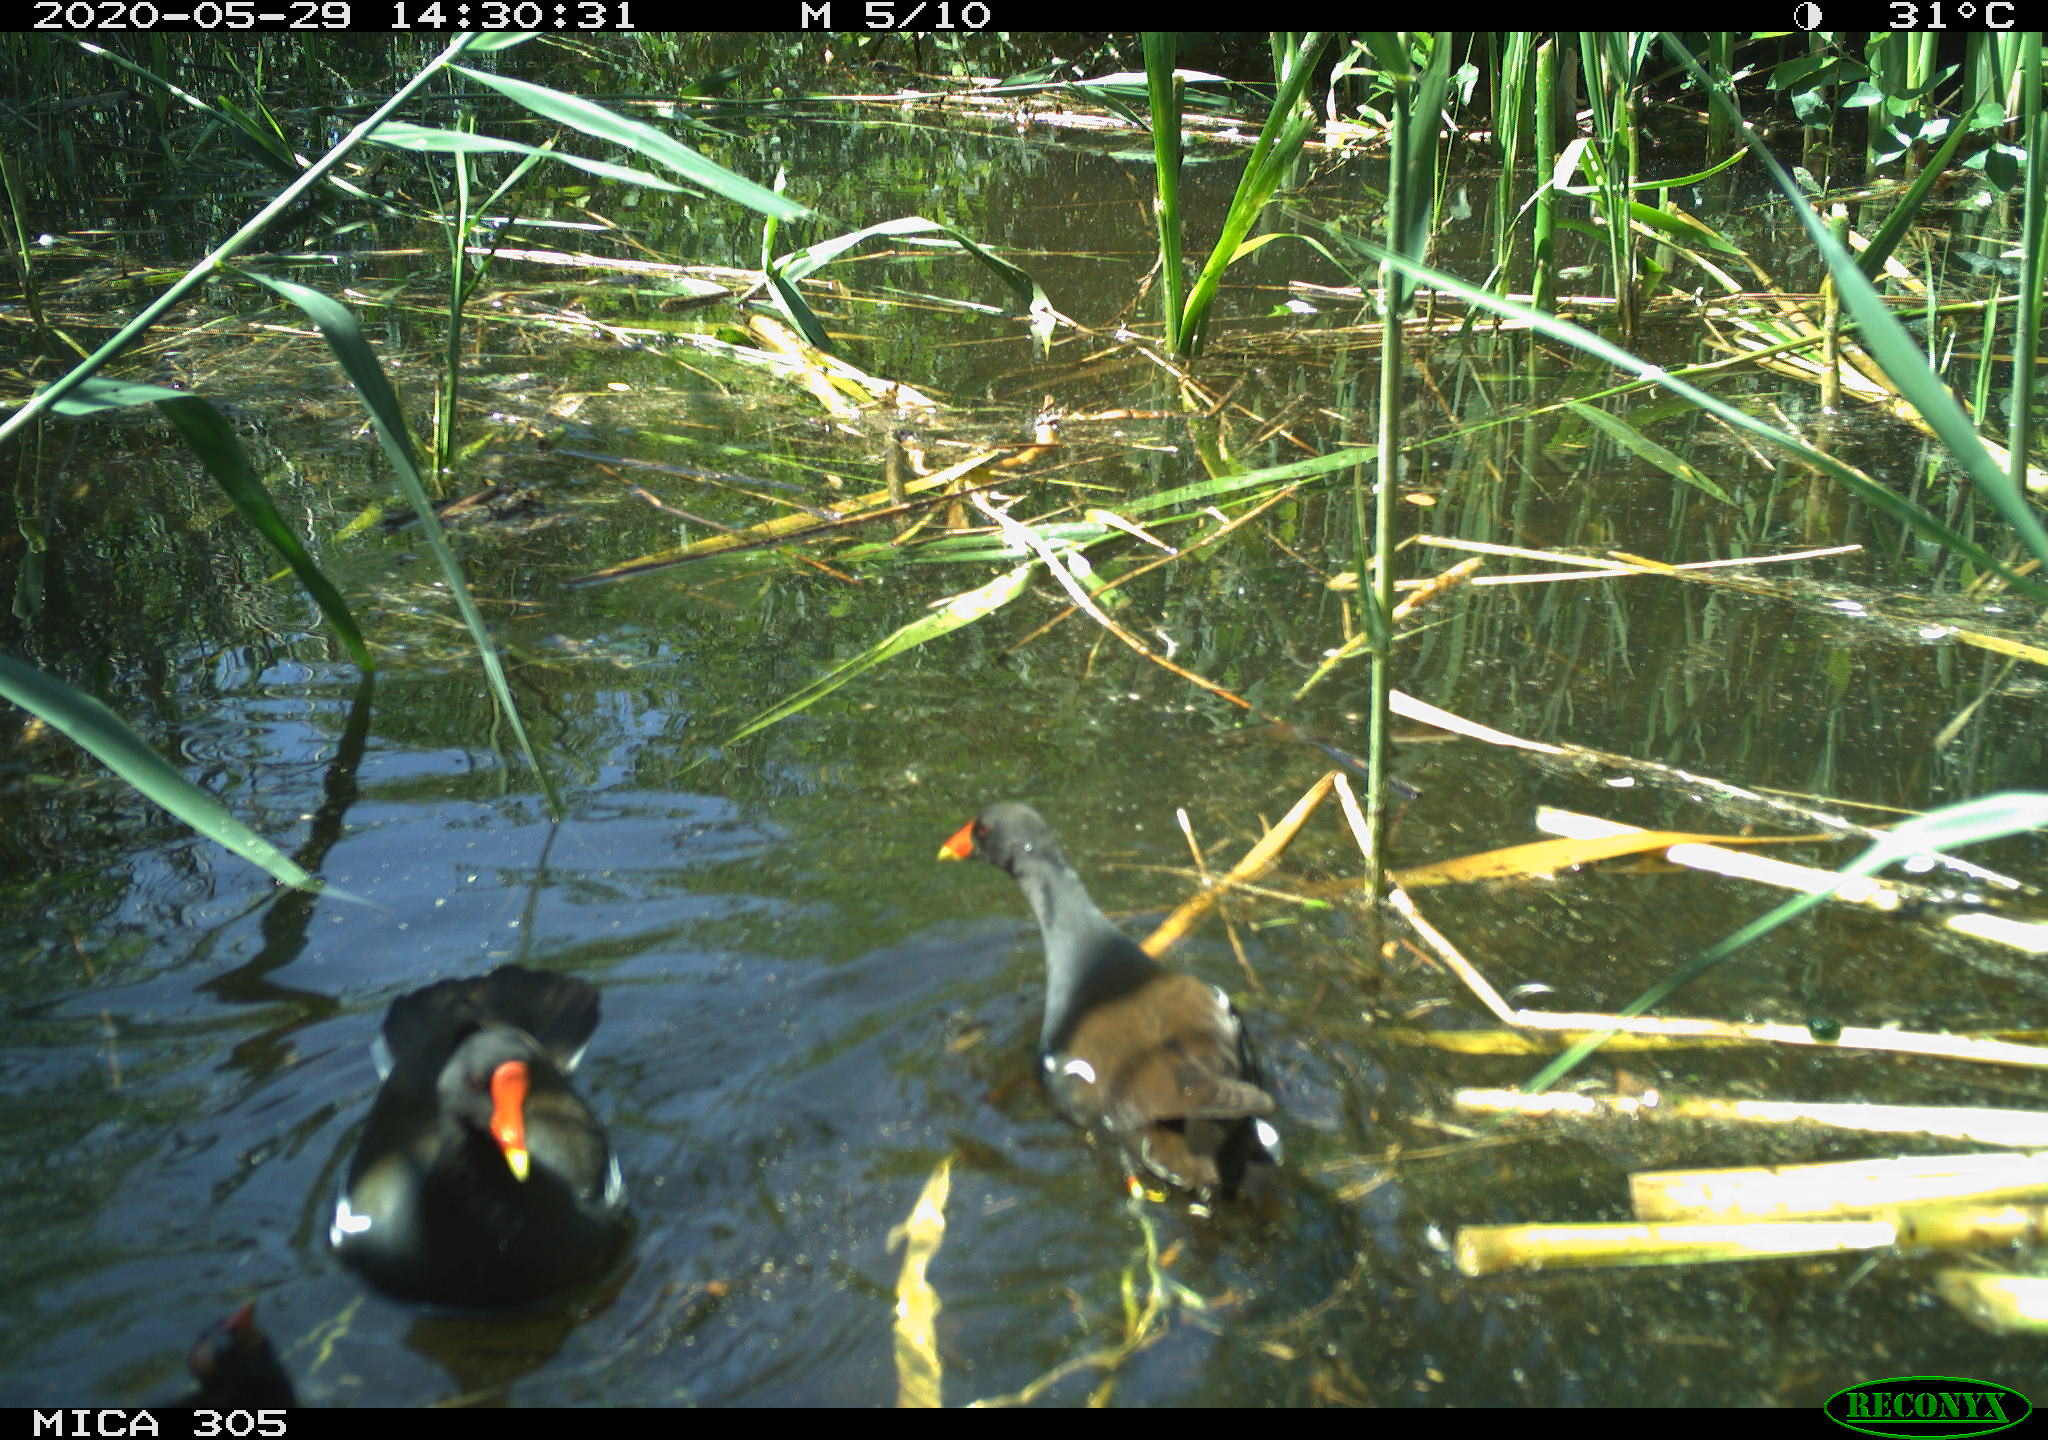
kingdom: Animalia
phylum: Chordata
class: Aves
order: Gruiformes
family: Rallidae
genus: Gallinula
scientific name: Gallinula chloropus
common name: Common moorhen
